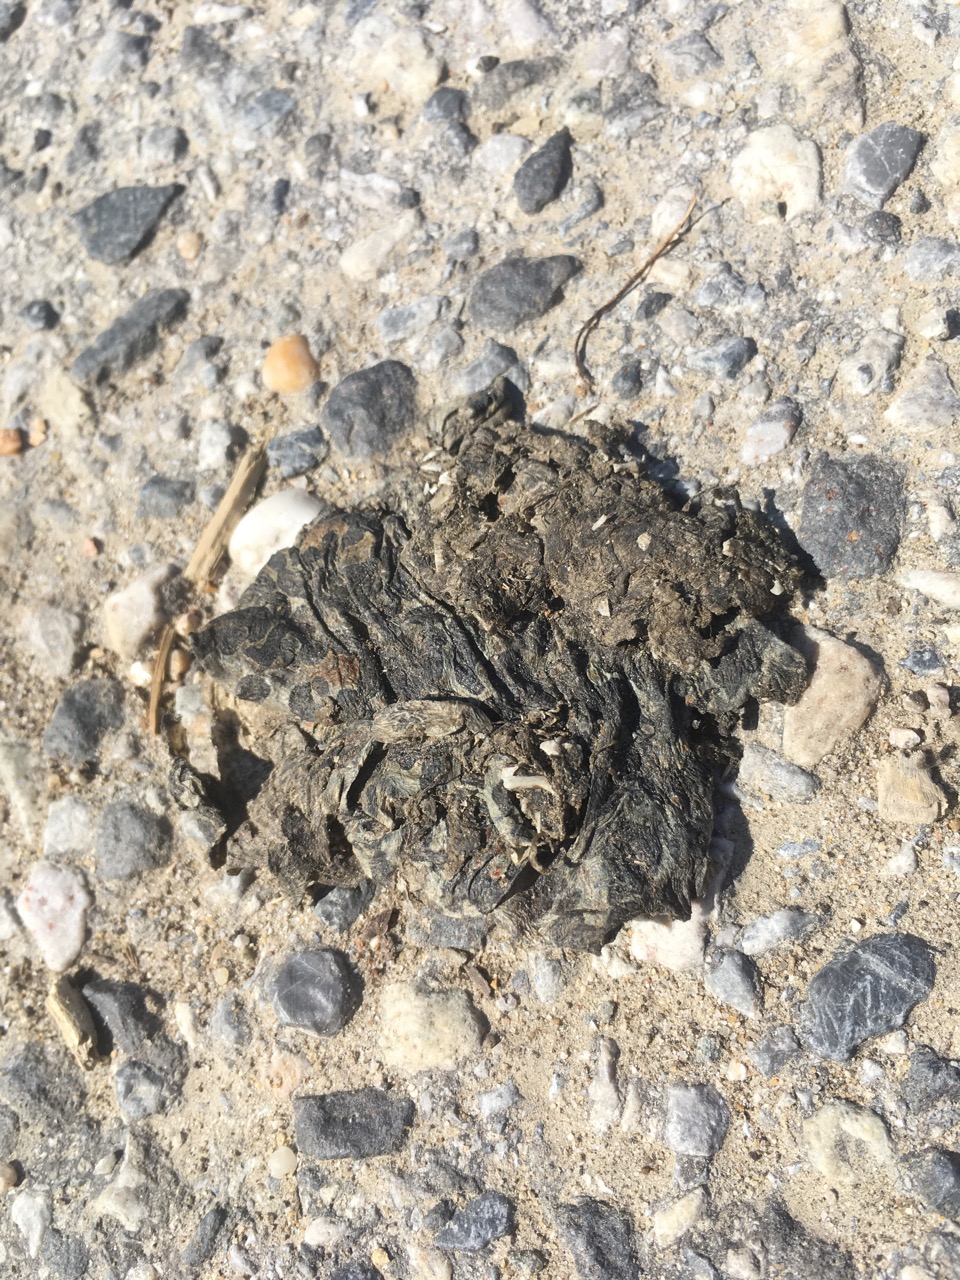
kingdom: Animalia
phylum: Chordata
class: Amphibia
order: Anura
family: Bufonidae
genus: Bufotes
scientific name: Bufotes viridis
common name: European green toad
